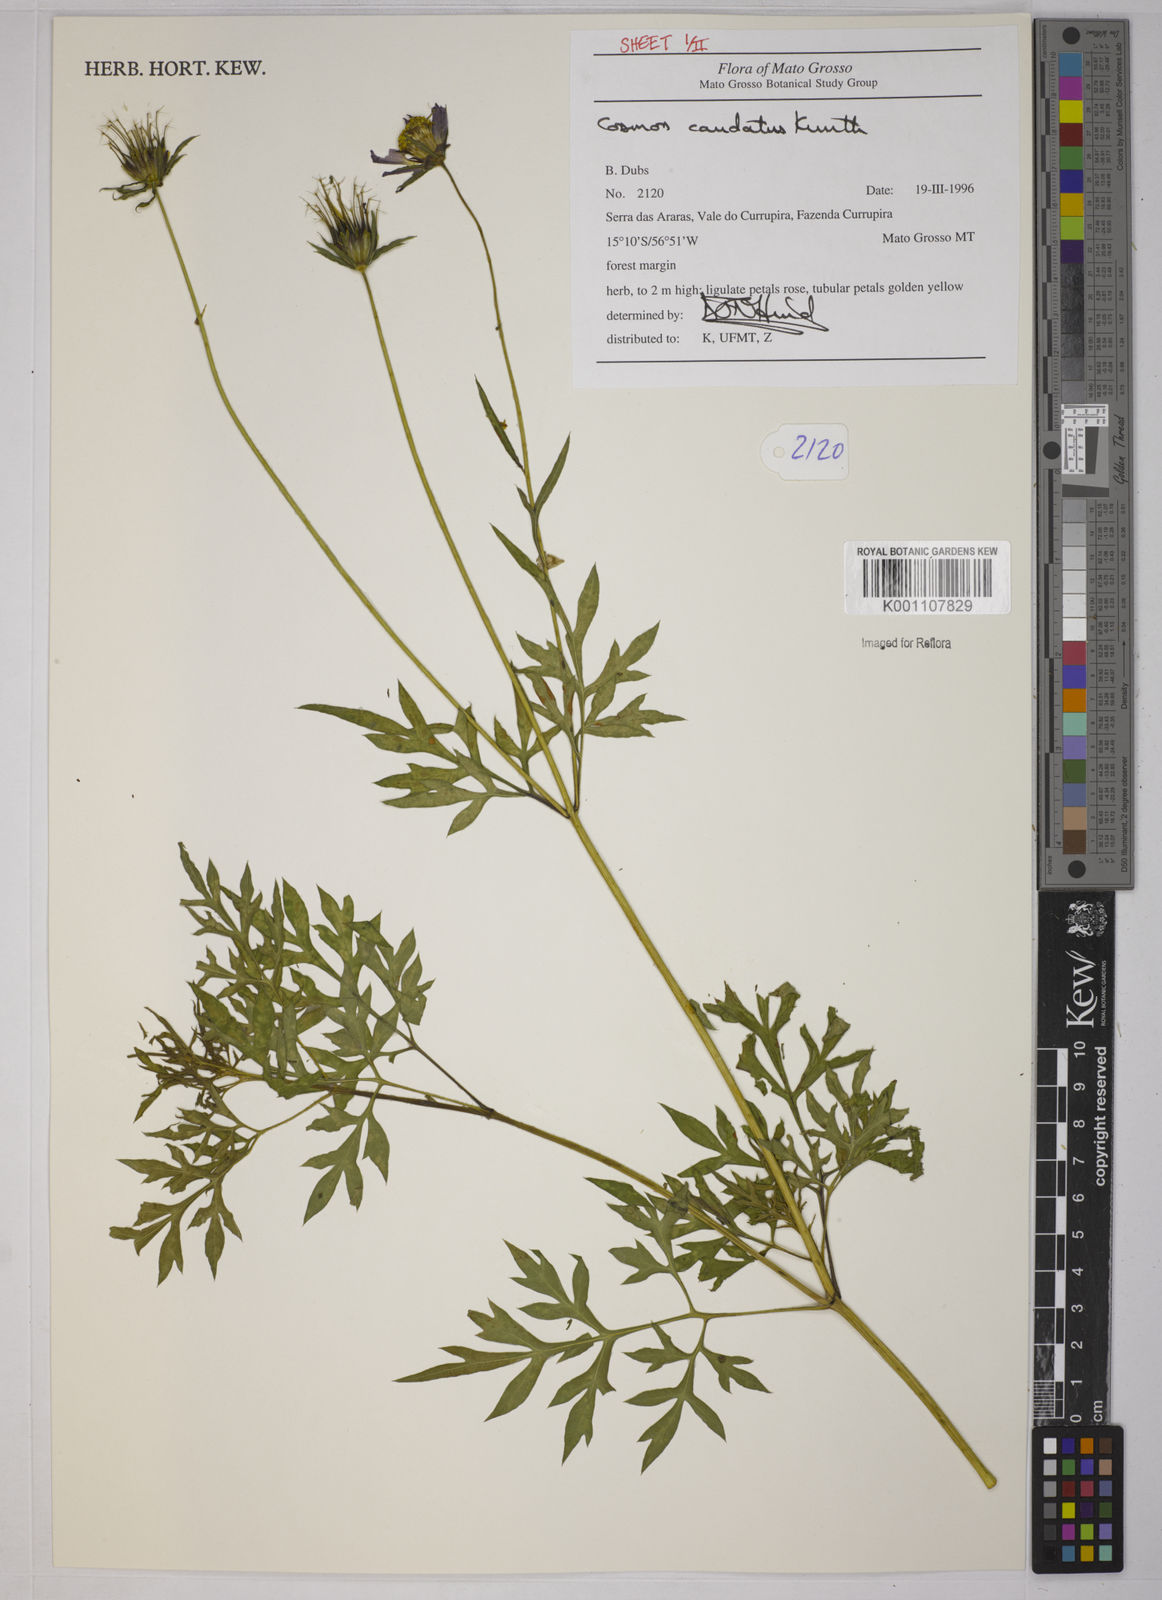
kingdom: Plantae
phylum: Tracheophyta
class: Magnoliopsida
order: Asterales
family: Asteraceae
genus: Cosmos
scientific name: Cosmos caudatus
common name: Wild cosmos
